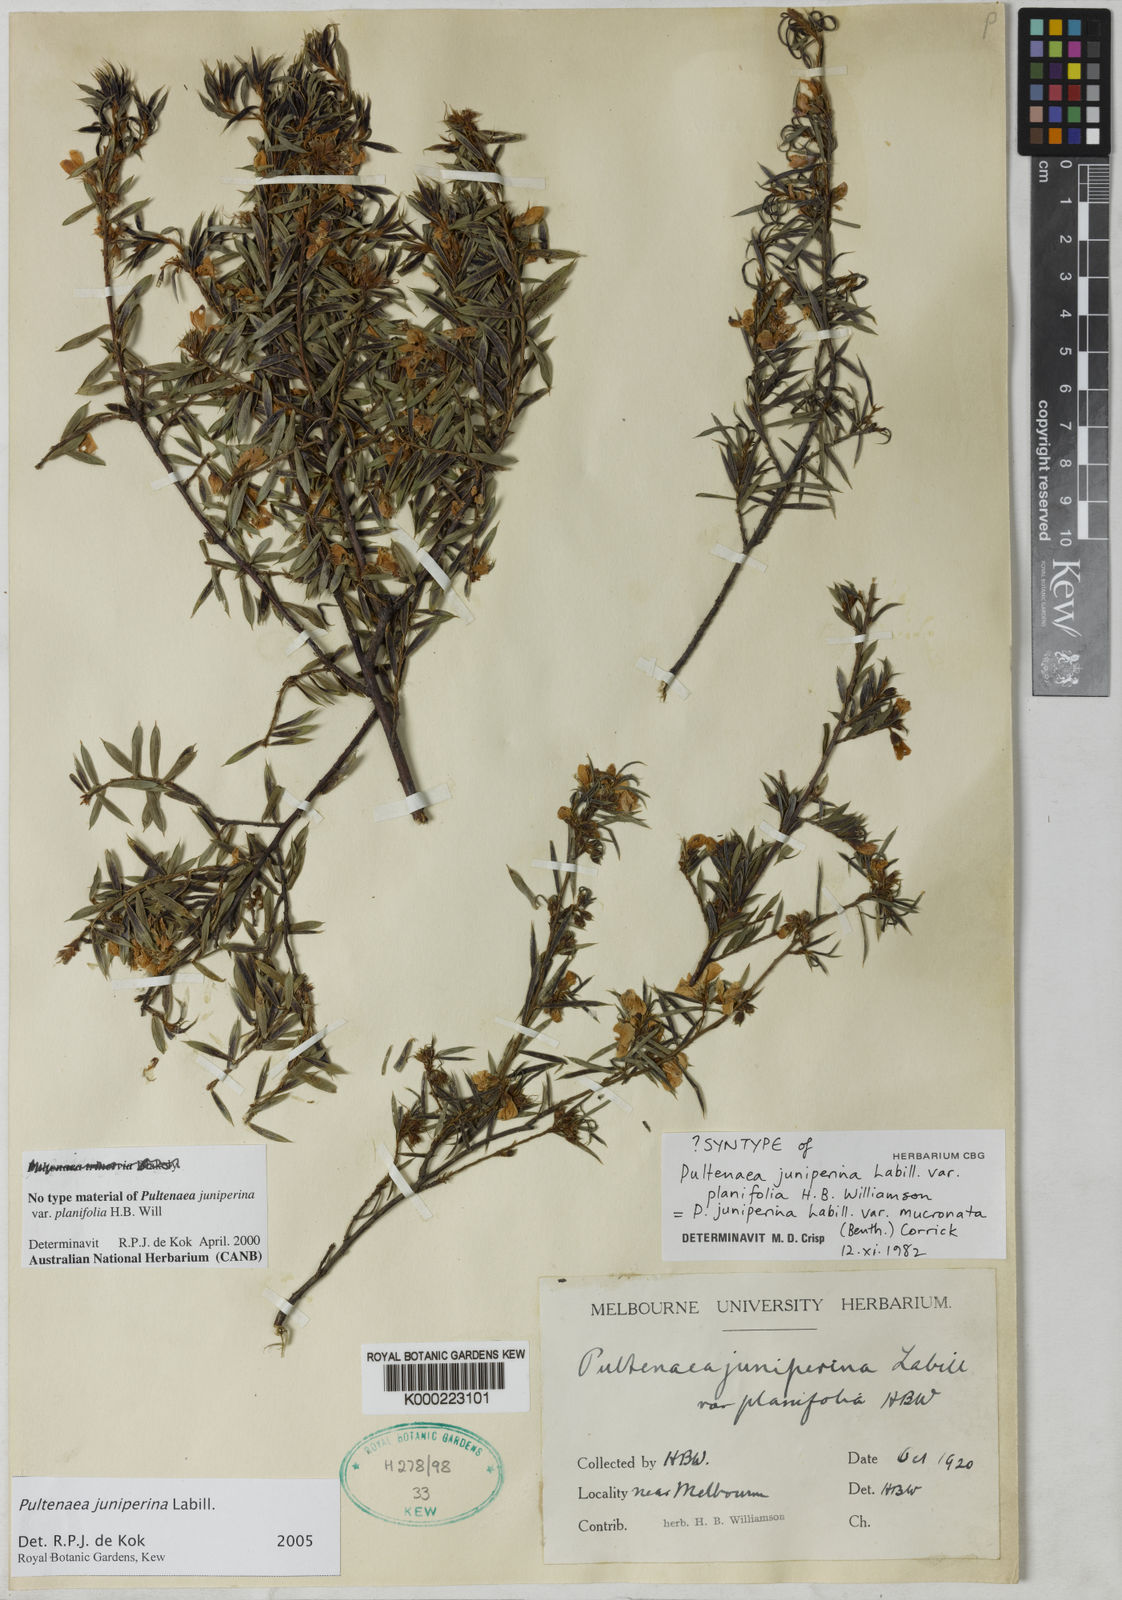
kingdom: Plantae
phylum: Tracheophyta
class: Magnoliopsida
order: Fabales
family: Fabaceae
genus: Pultenaea
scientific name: Pultenaea juniperina
